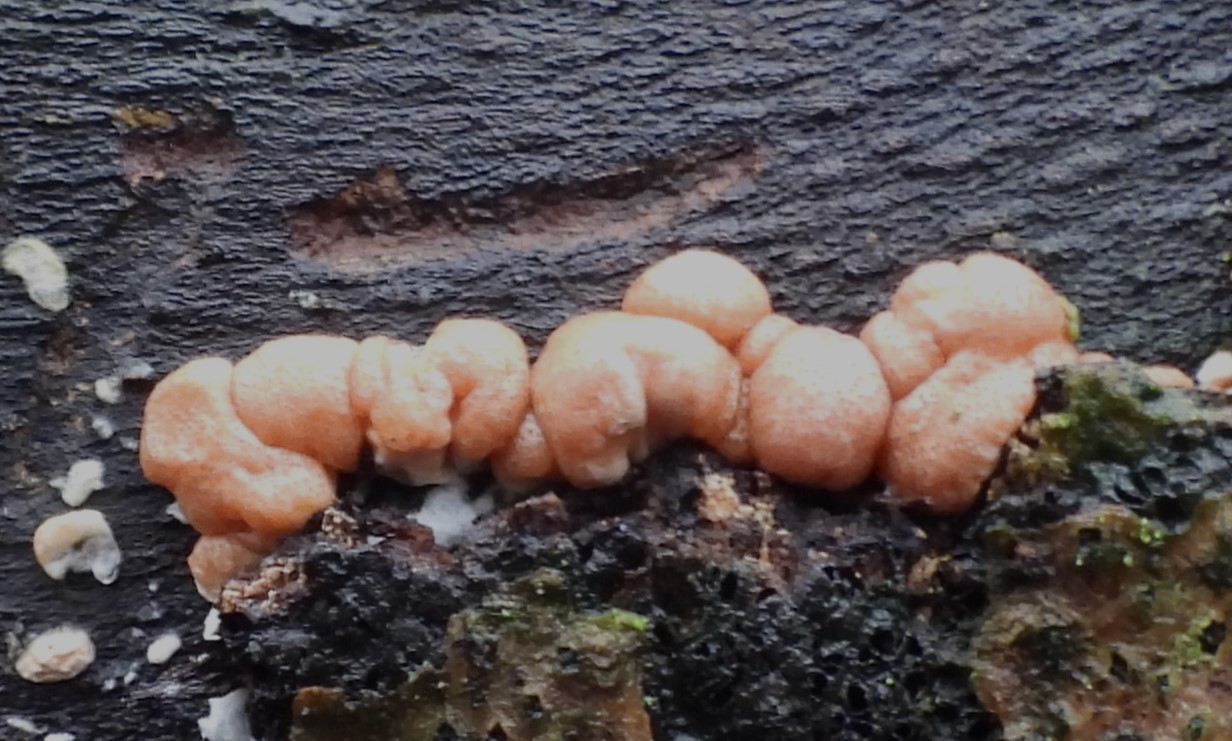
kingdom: Fungi
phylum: Ascomycota
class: Sordariomycetes
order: Hypocreales
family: Hypocreaceae
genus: Trichoderma
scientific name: Trichoderma europaeum
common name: rosabrun kødkerne
